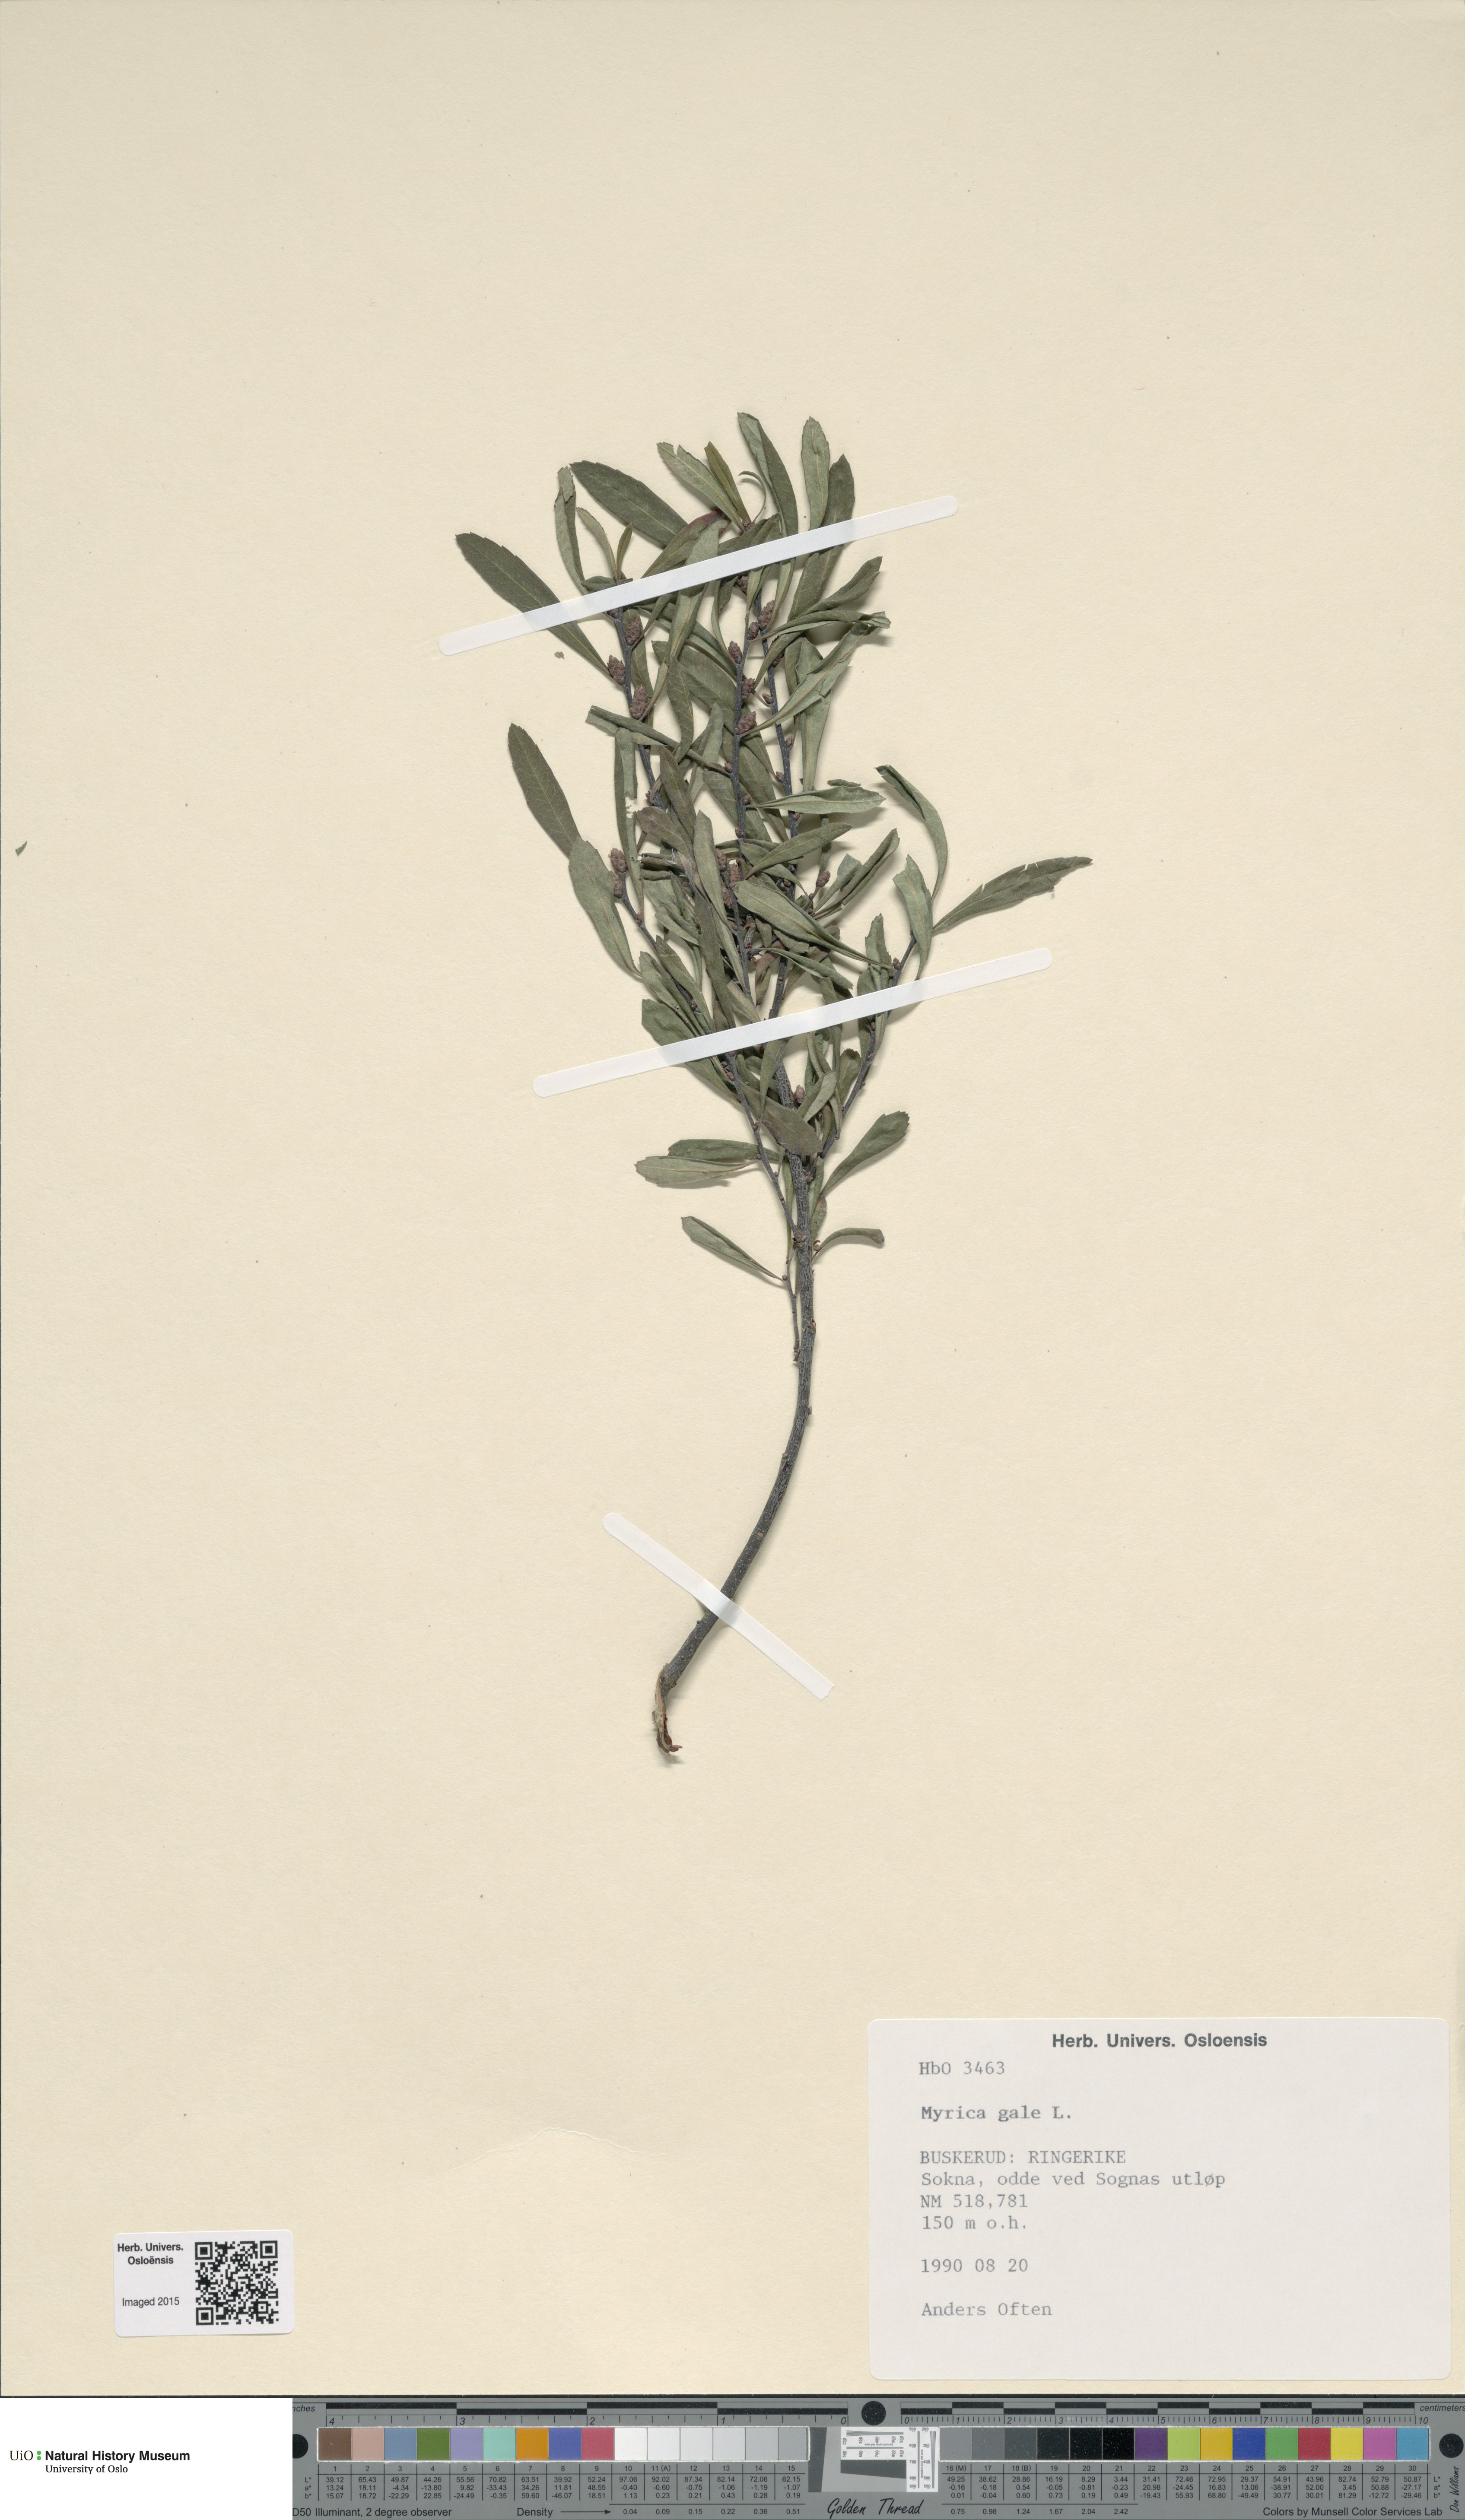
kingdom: Plantae
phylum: Tracheophyta
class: Magnoliopsida
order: Fagales
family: Myricaceae
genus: Myrica
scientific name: Myrica gale
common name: Sweet gale
